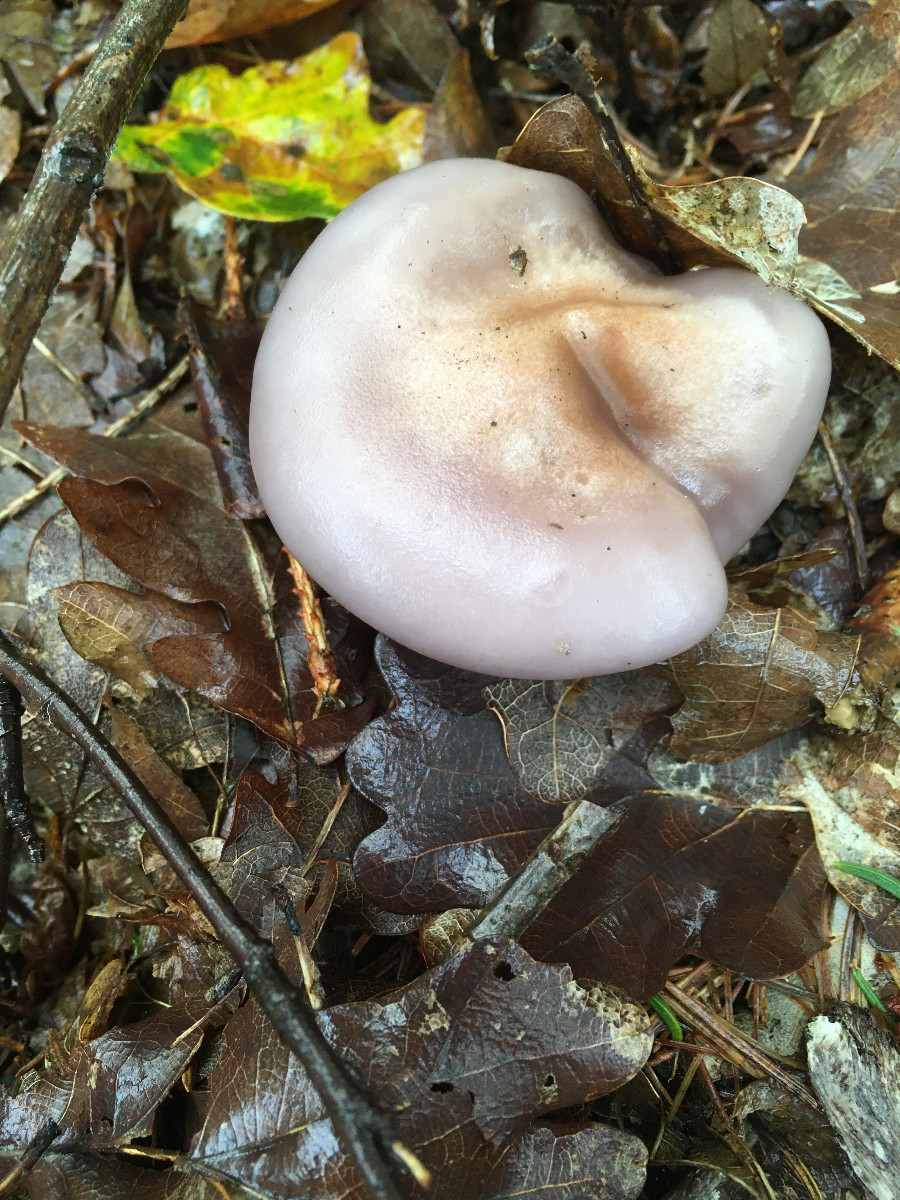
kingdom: Fungi
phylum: Basidiomycota
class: Agaricomycetes
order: Agaricales
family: Tricholomataceae
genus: Lepista
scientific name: Lepista nuda
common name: violet hekseringshat
